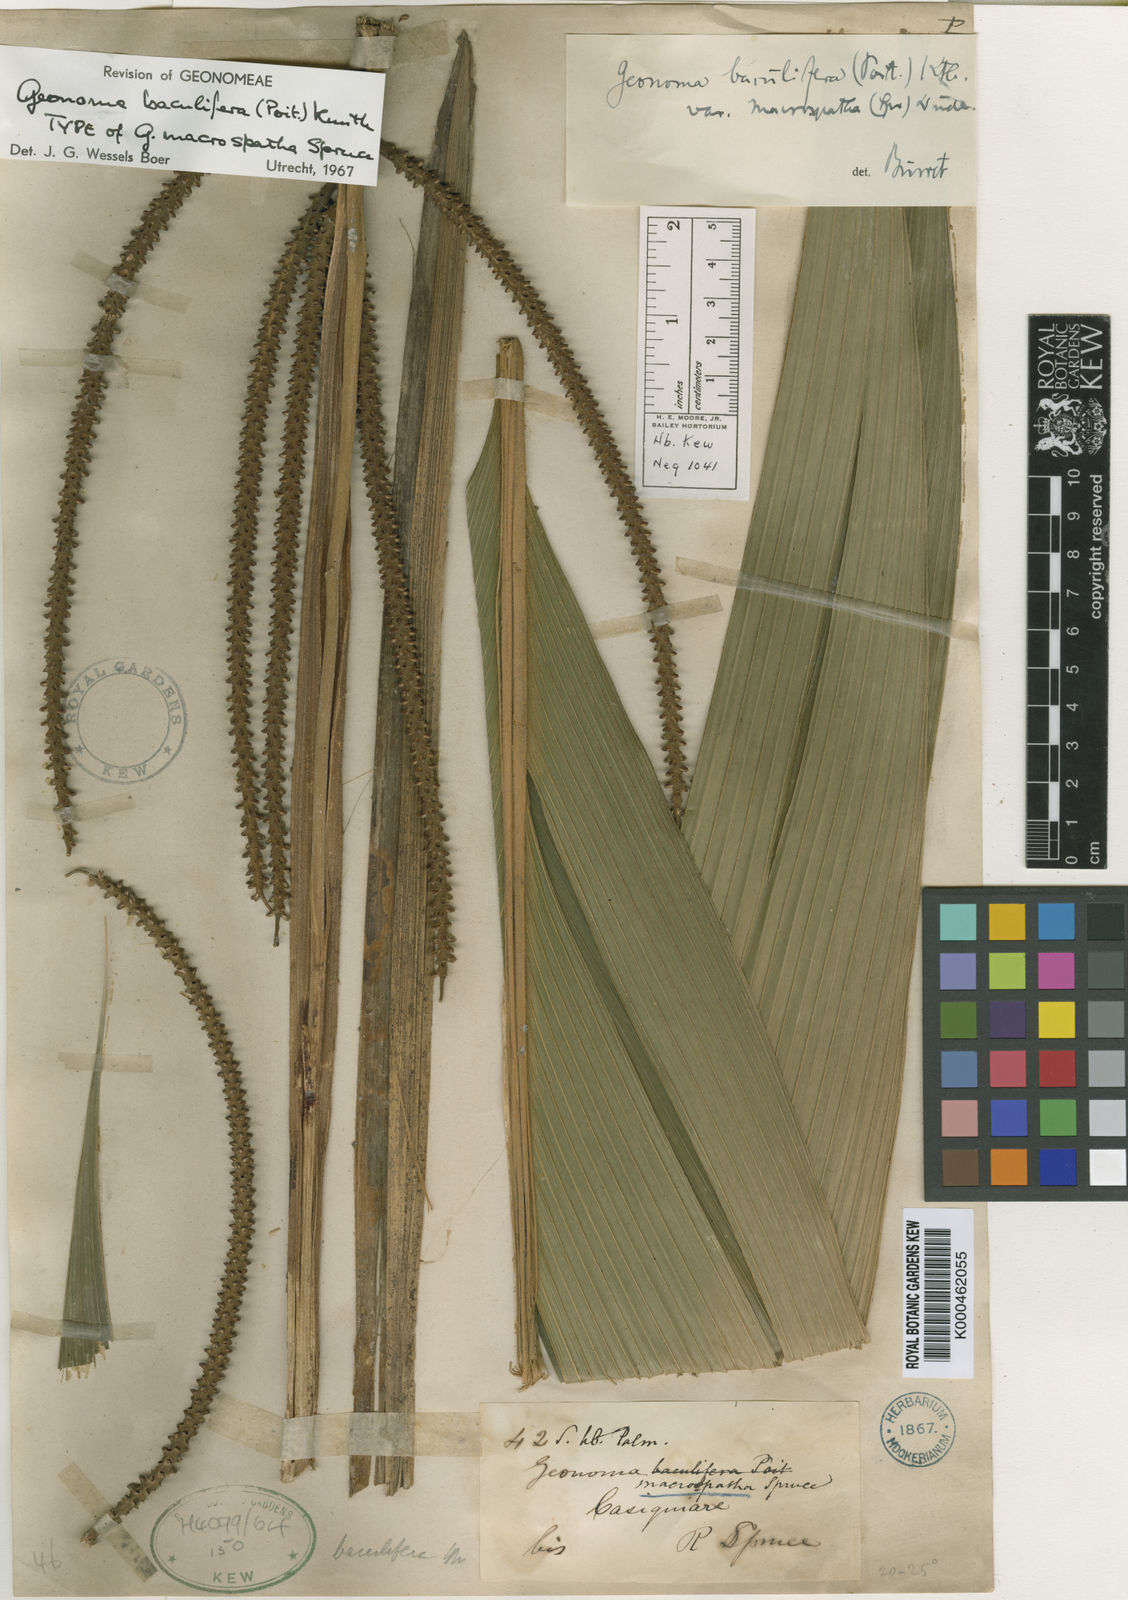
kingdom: Plantae
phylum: Tracheophyta
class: Liliopsida
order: Arecales
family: Arecaceae
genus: Geonoma
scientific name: Geonoma baculifera
